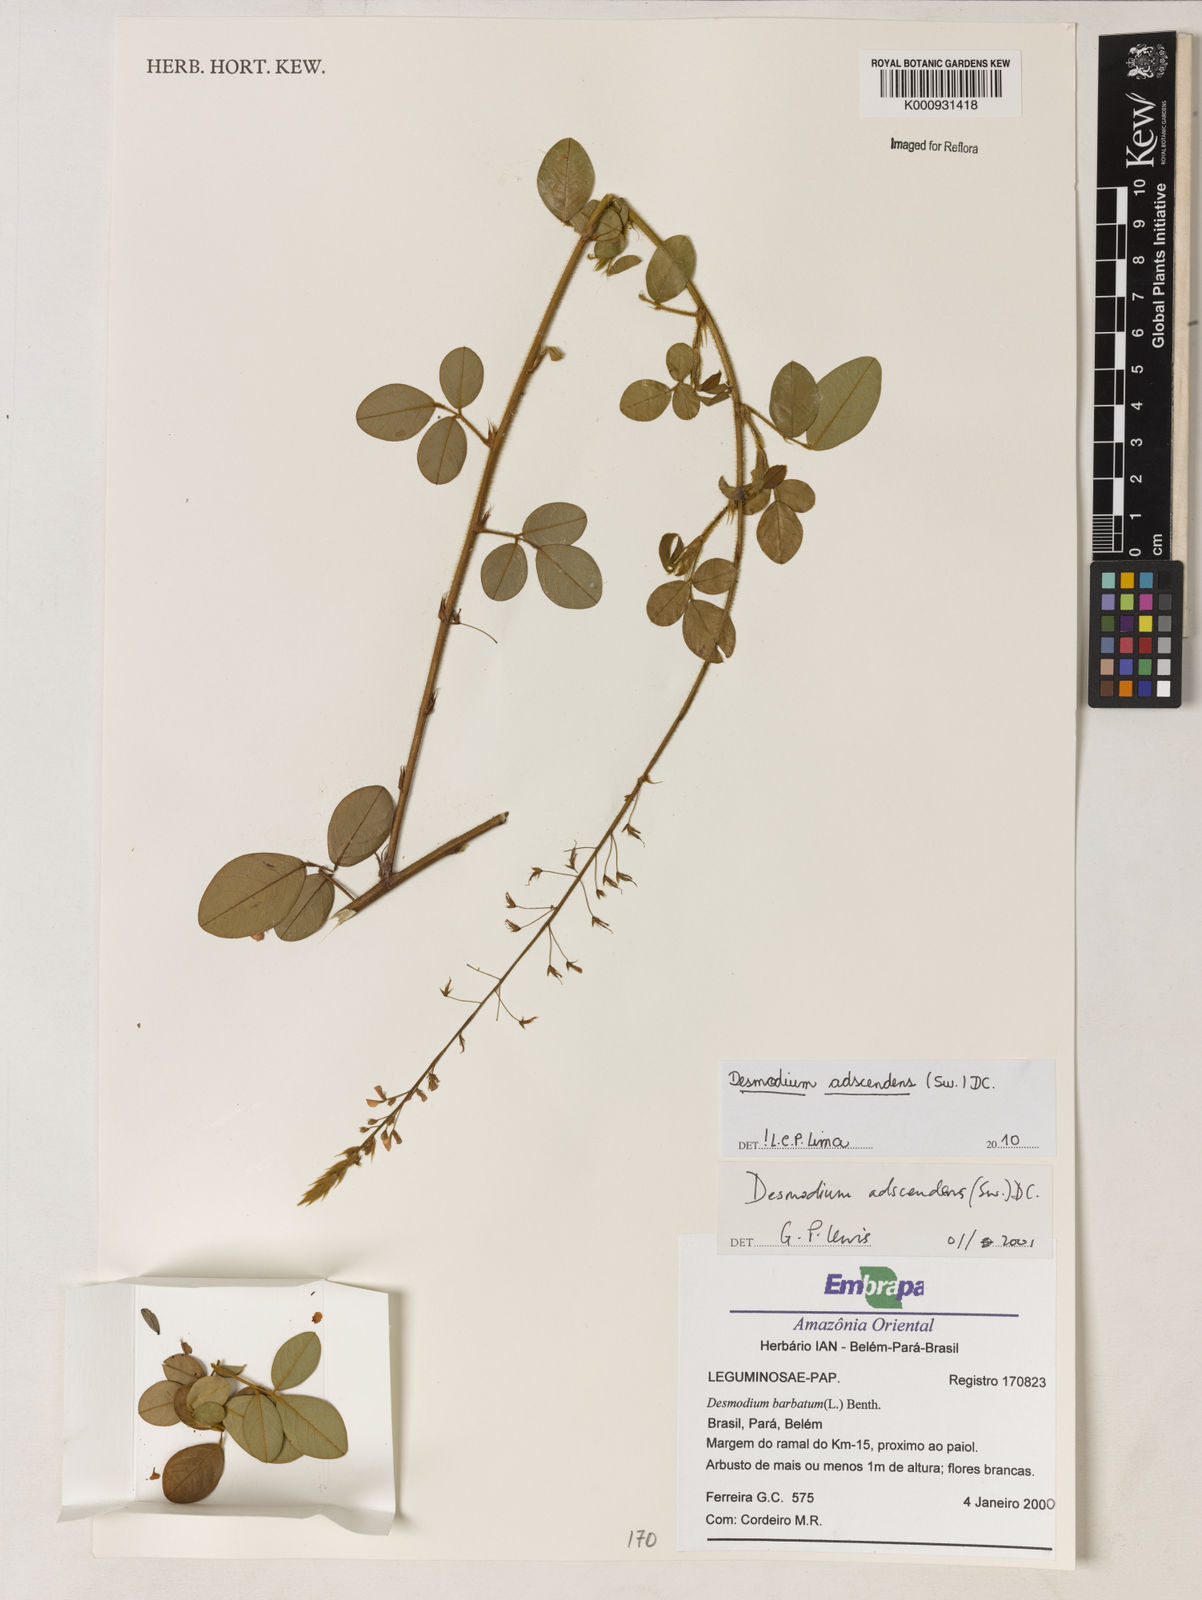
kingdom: Plantae
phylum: Tracheophyta
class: Magnoliopsida
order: Fabales
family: Fabaceae
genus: Grona
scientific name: Grona adscendens
